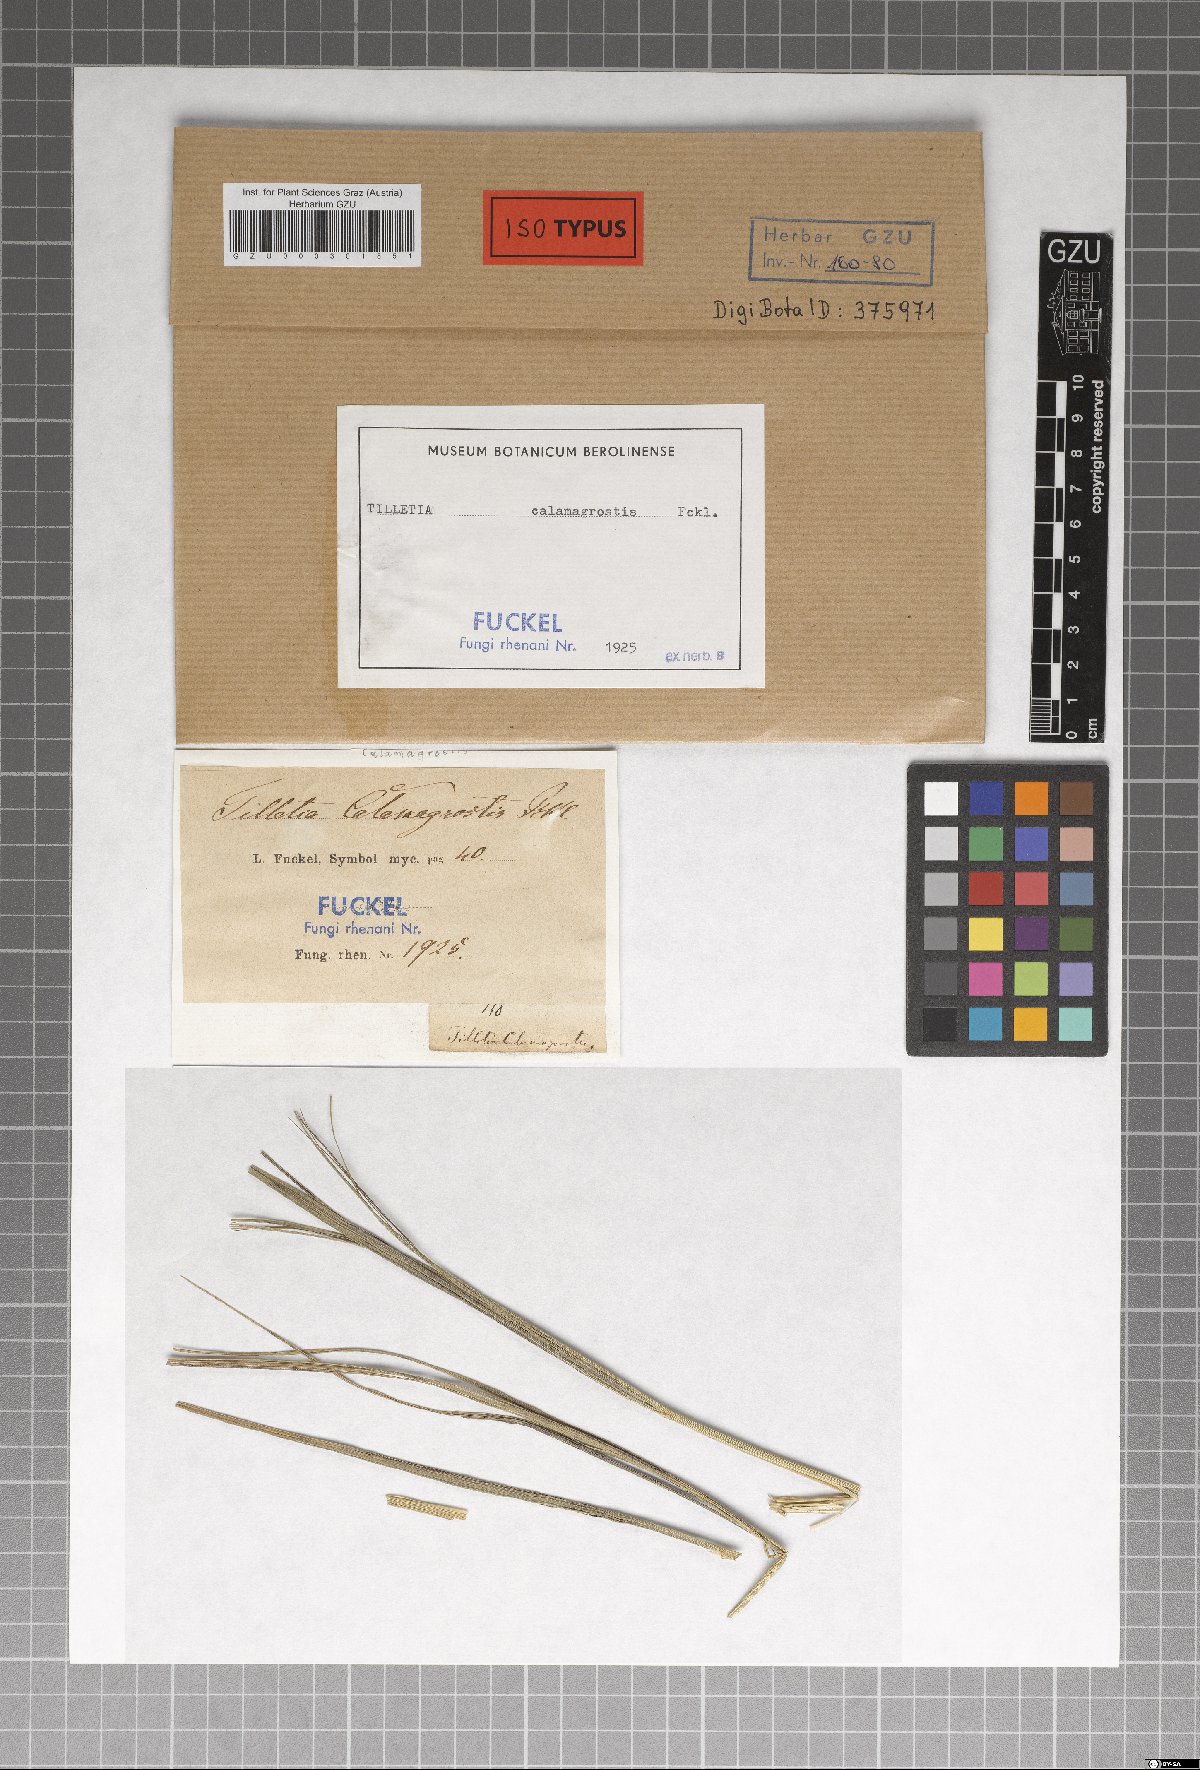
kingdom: Fungi
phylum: Basidiomycota
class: Ustilaginomycetes
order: Ustilaginales
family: Ustilaginaceae
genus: Ustilago
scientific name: Ustilago calamagrostidis
